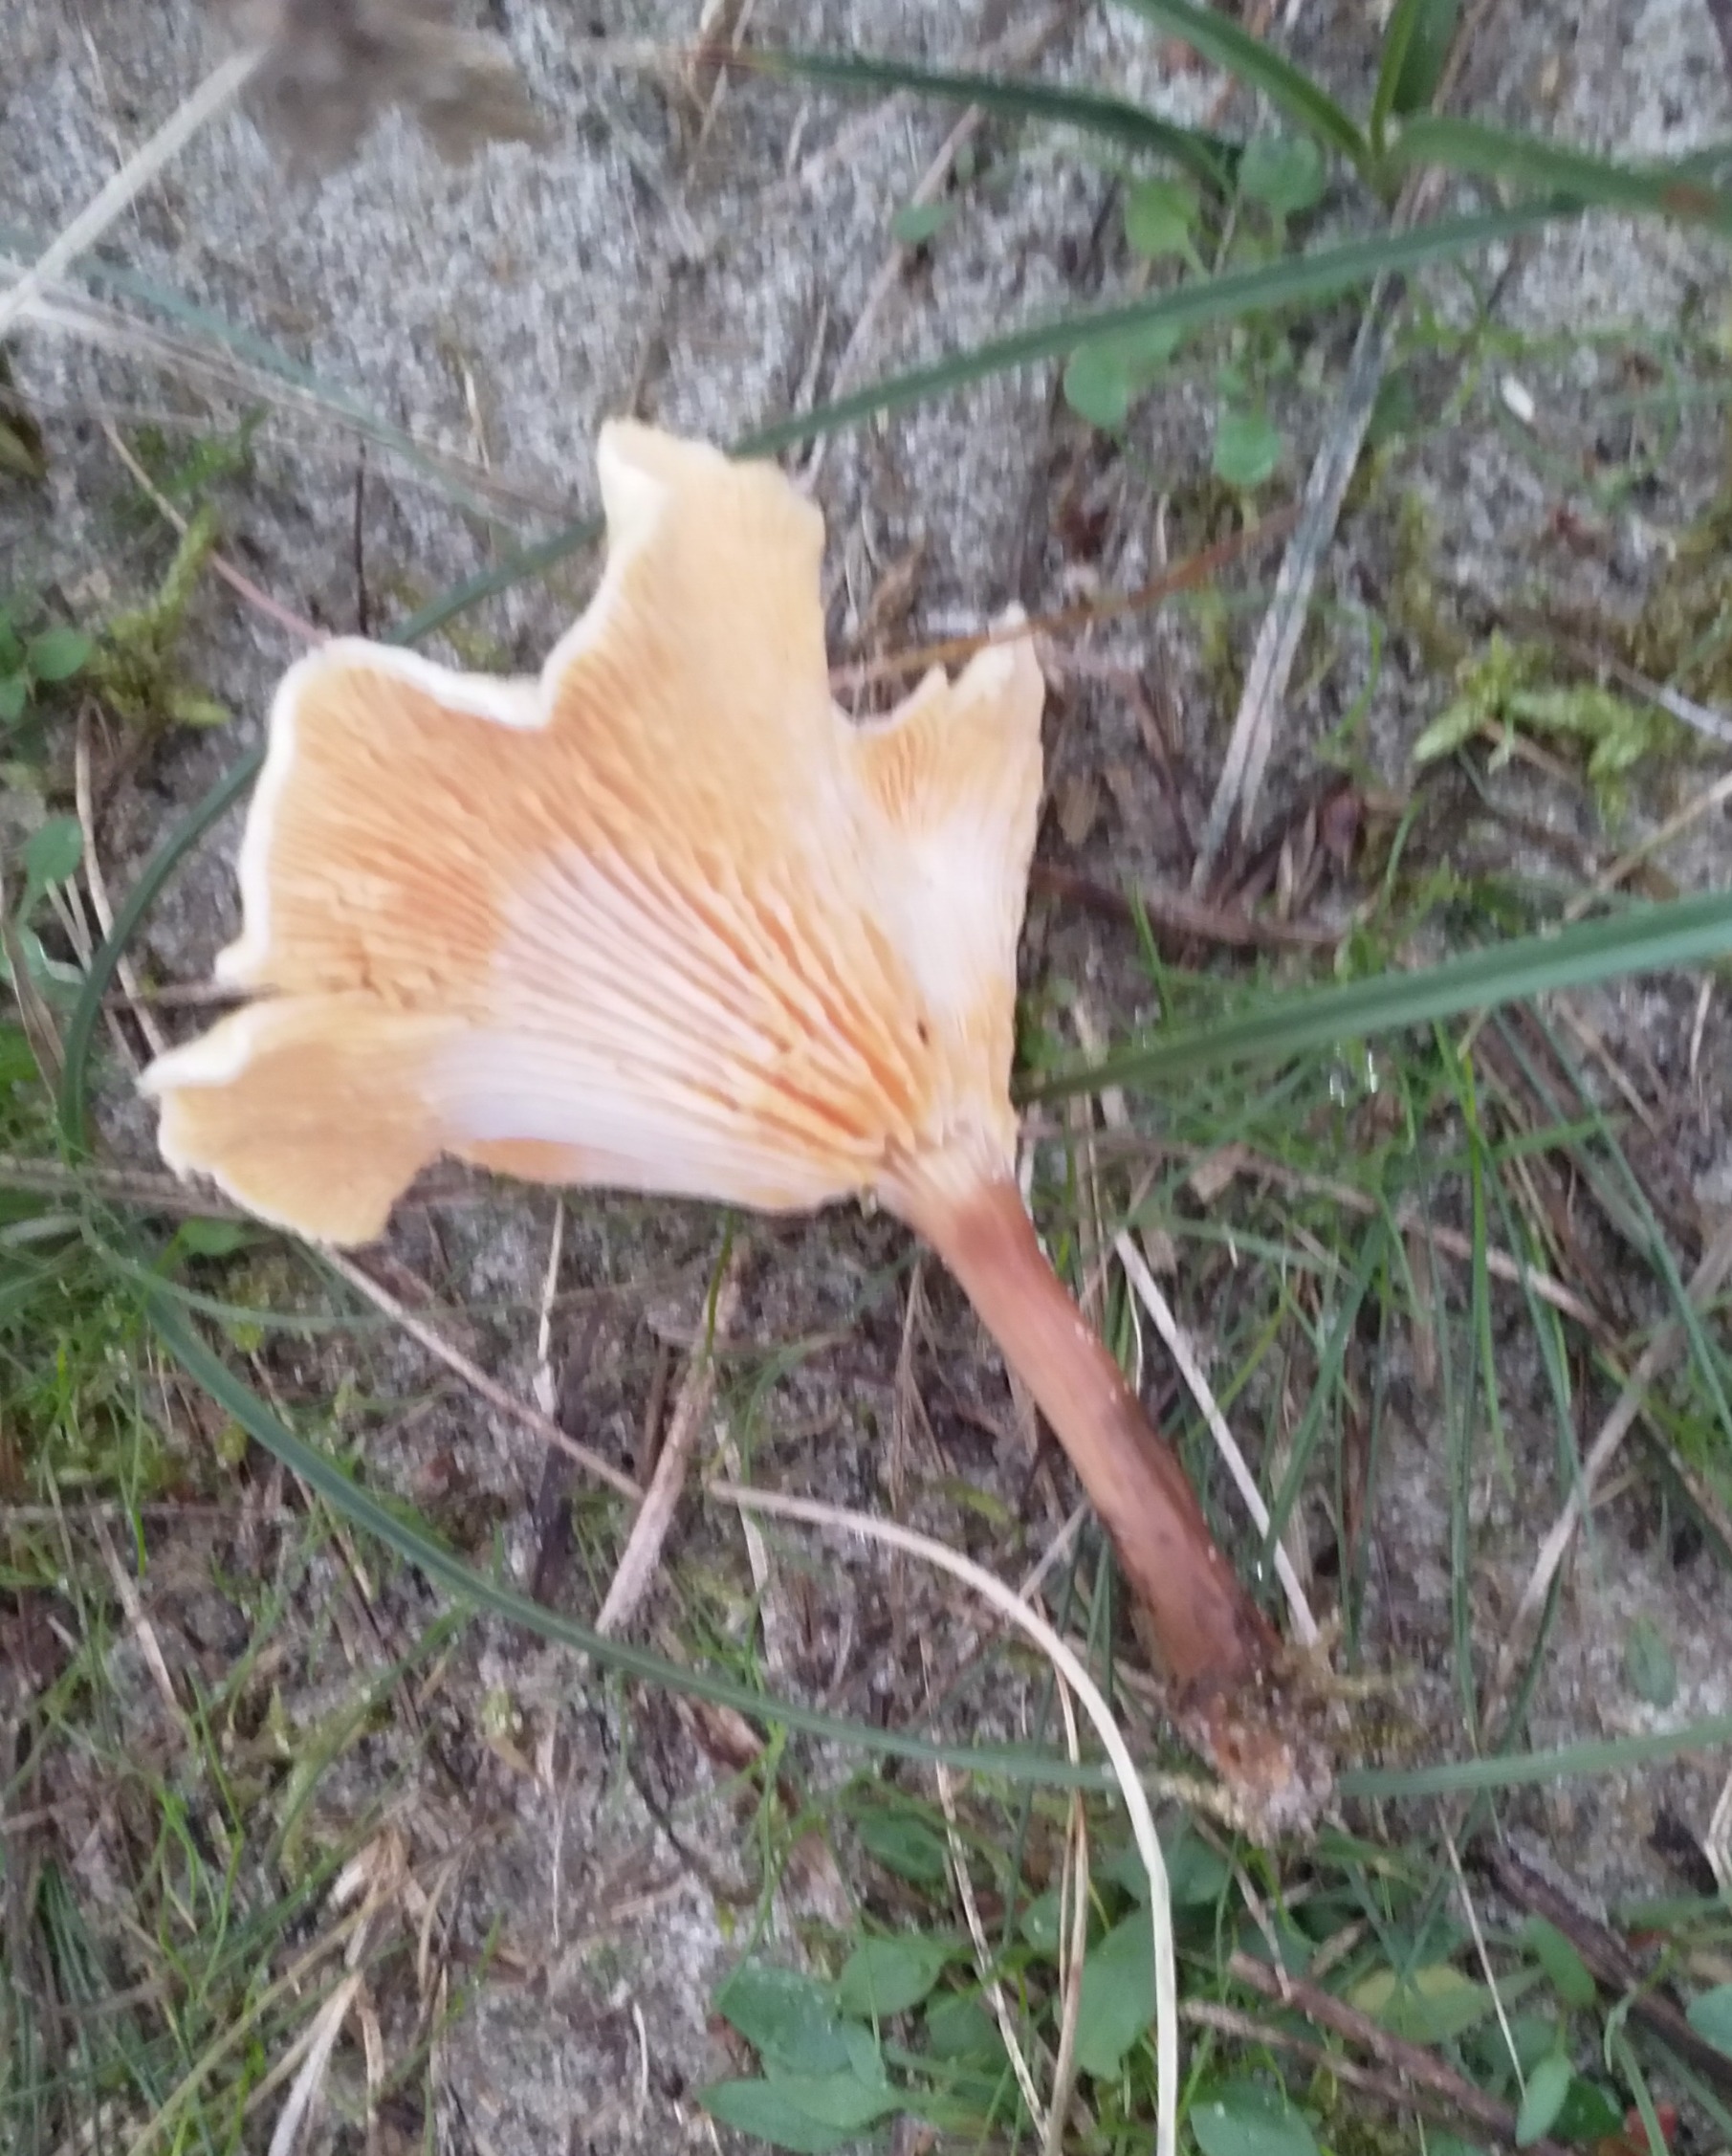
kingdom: Fungi
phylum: Basidiomycota
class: Agaricomycetes
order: Boletales
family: Hygrophoropsidaceae
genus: Hygrophoropsis
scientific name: Hygrophoropsis aurantiaca
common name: Almindelig orangekantarel
